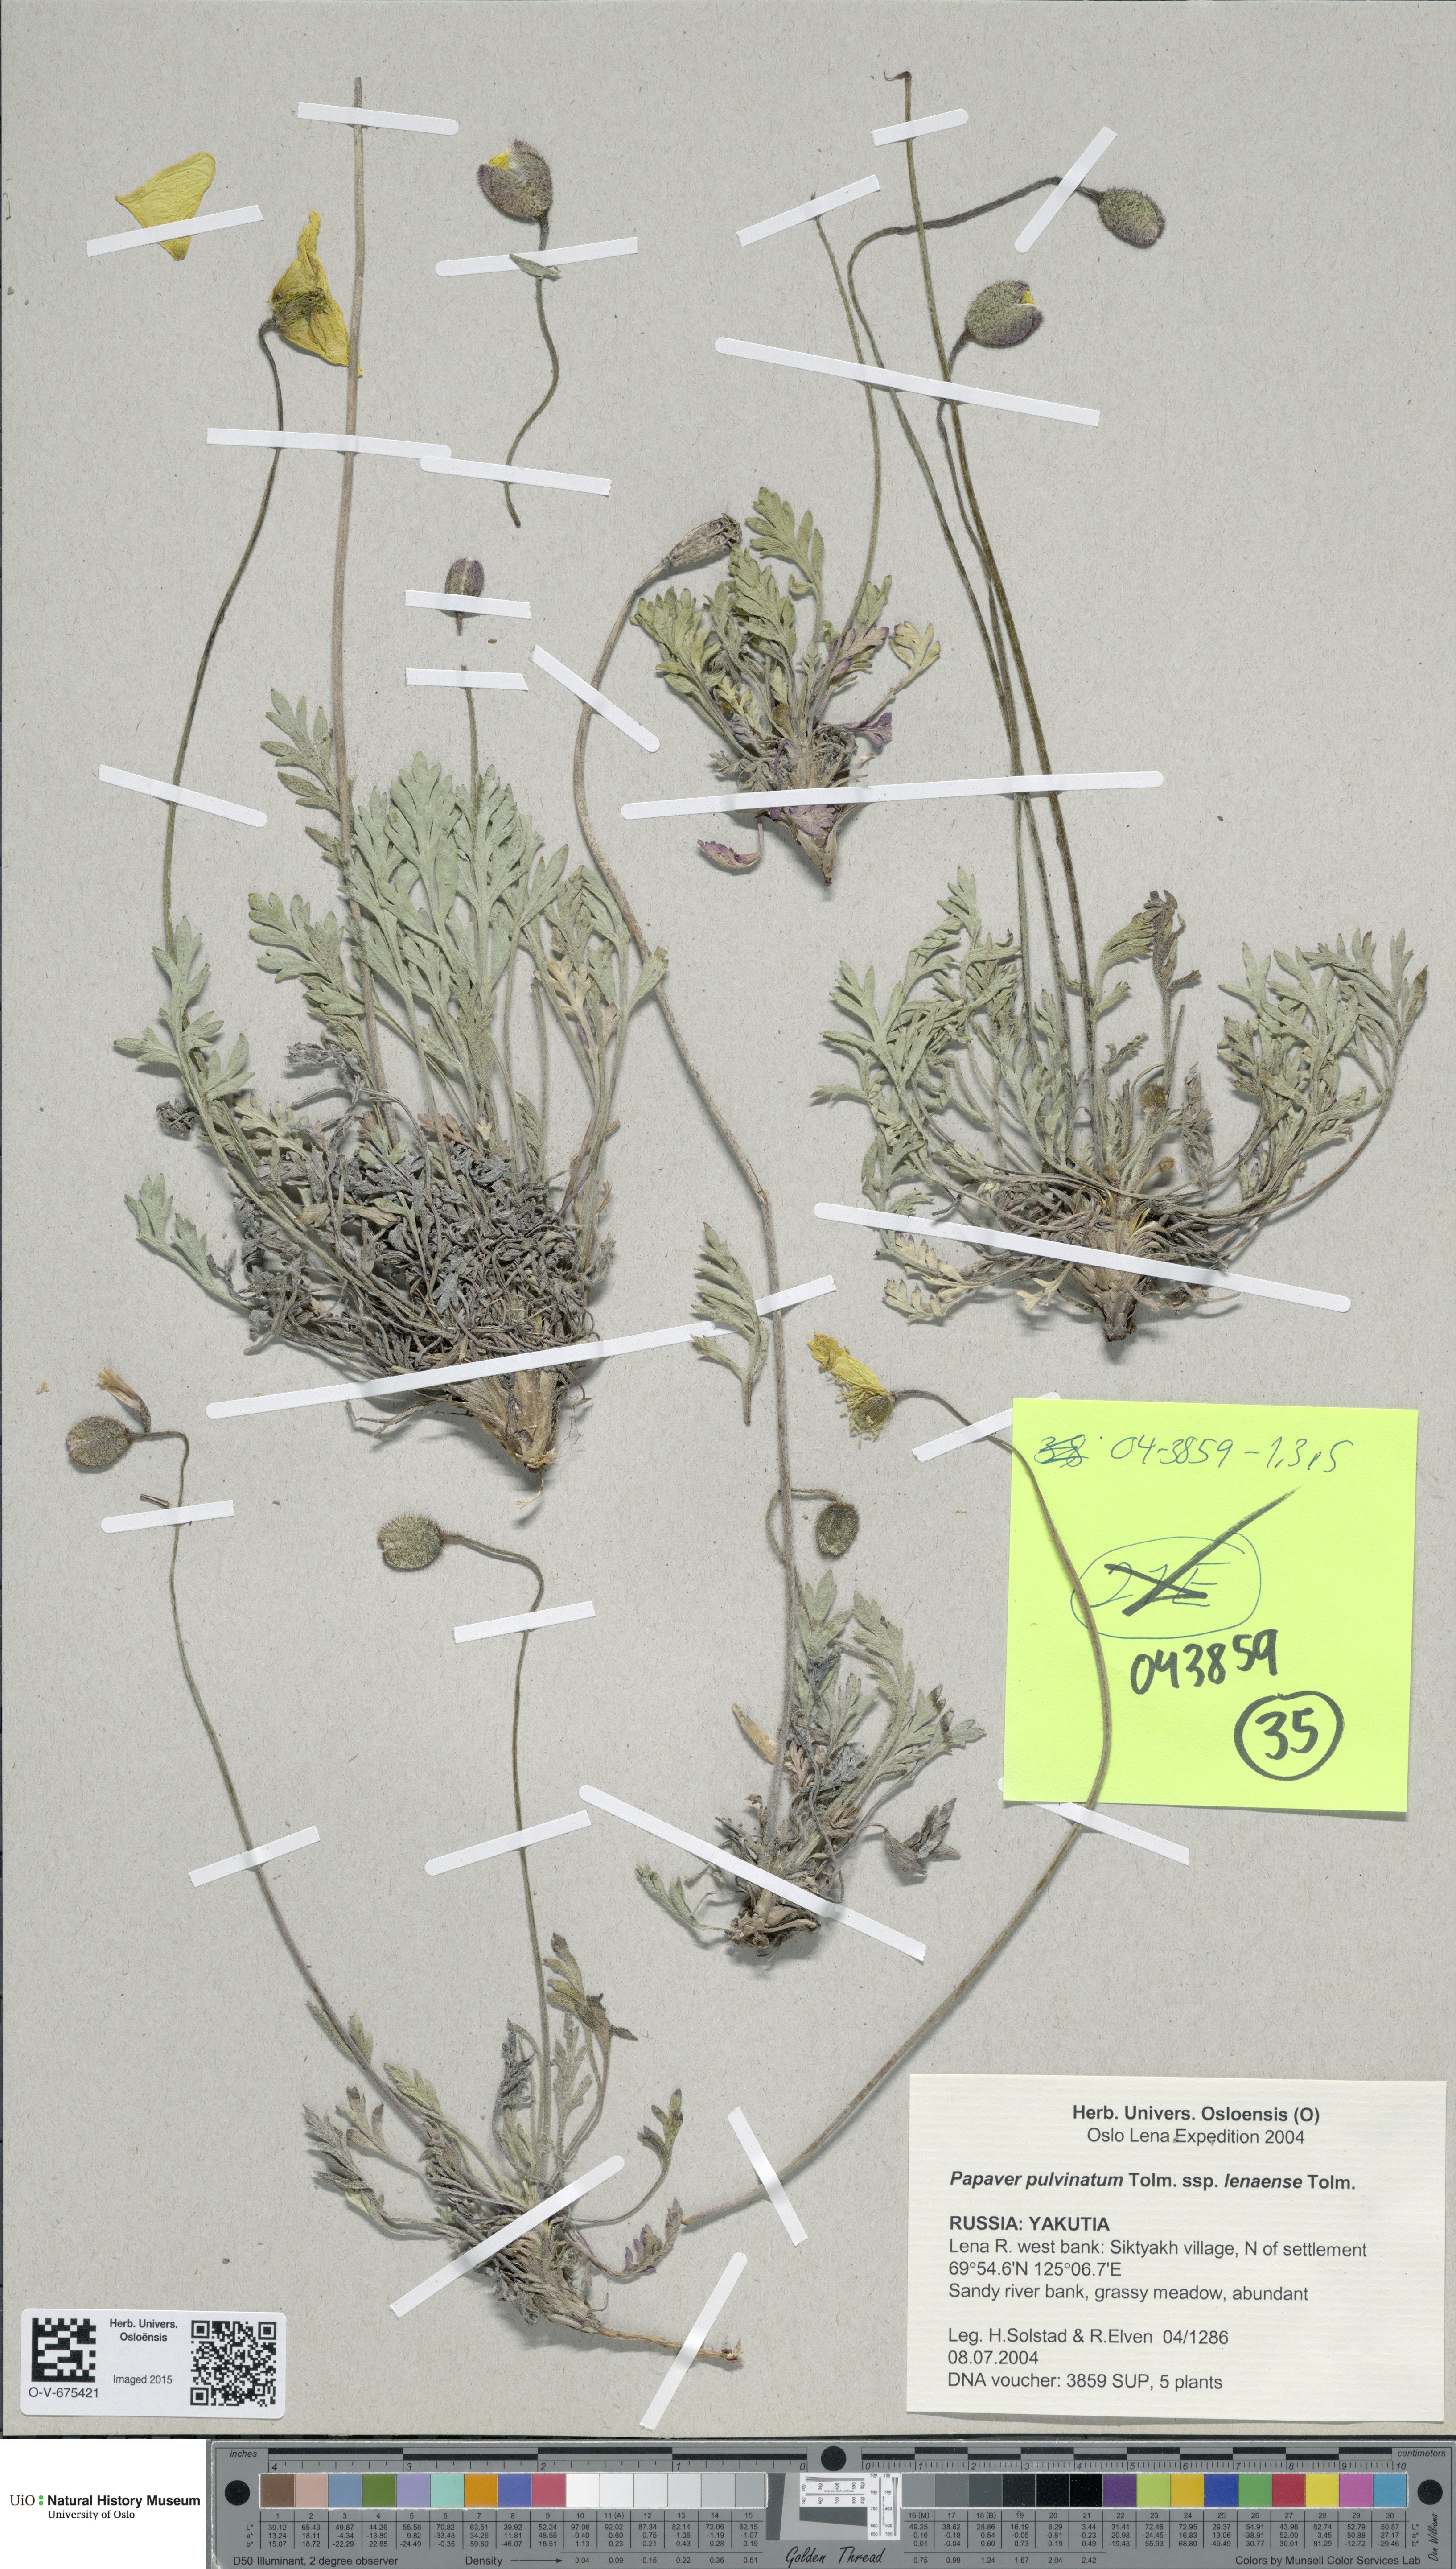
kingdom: Plantae
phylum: Tracheophyta
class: Magnoliopsida
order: Ranunculales
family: Papaveraceae
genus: Papaver
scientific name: Papaver lenaense
